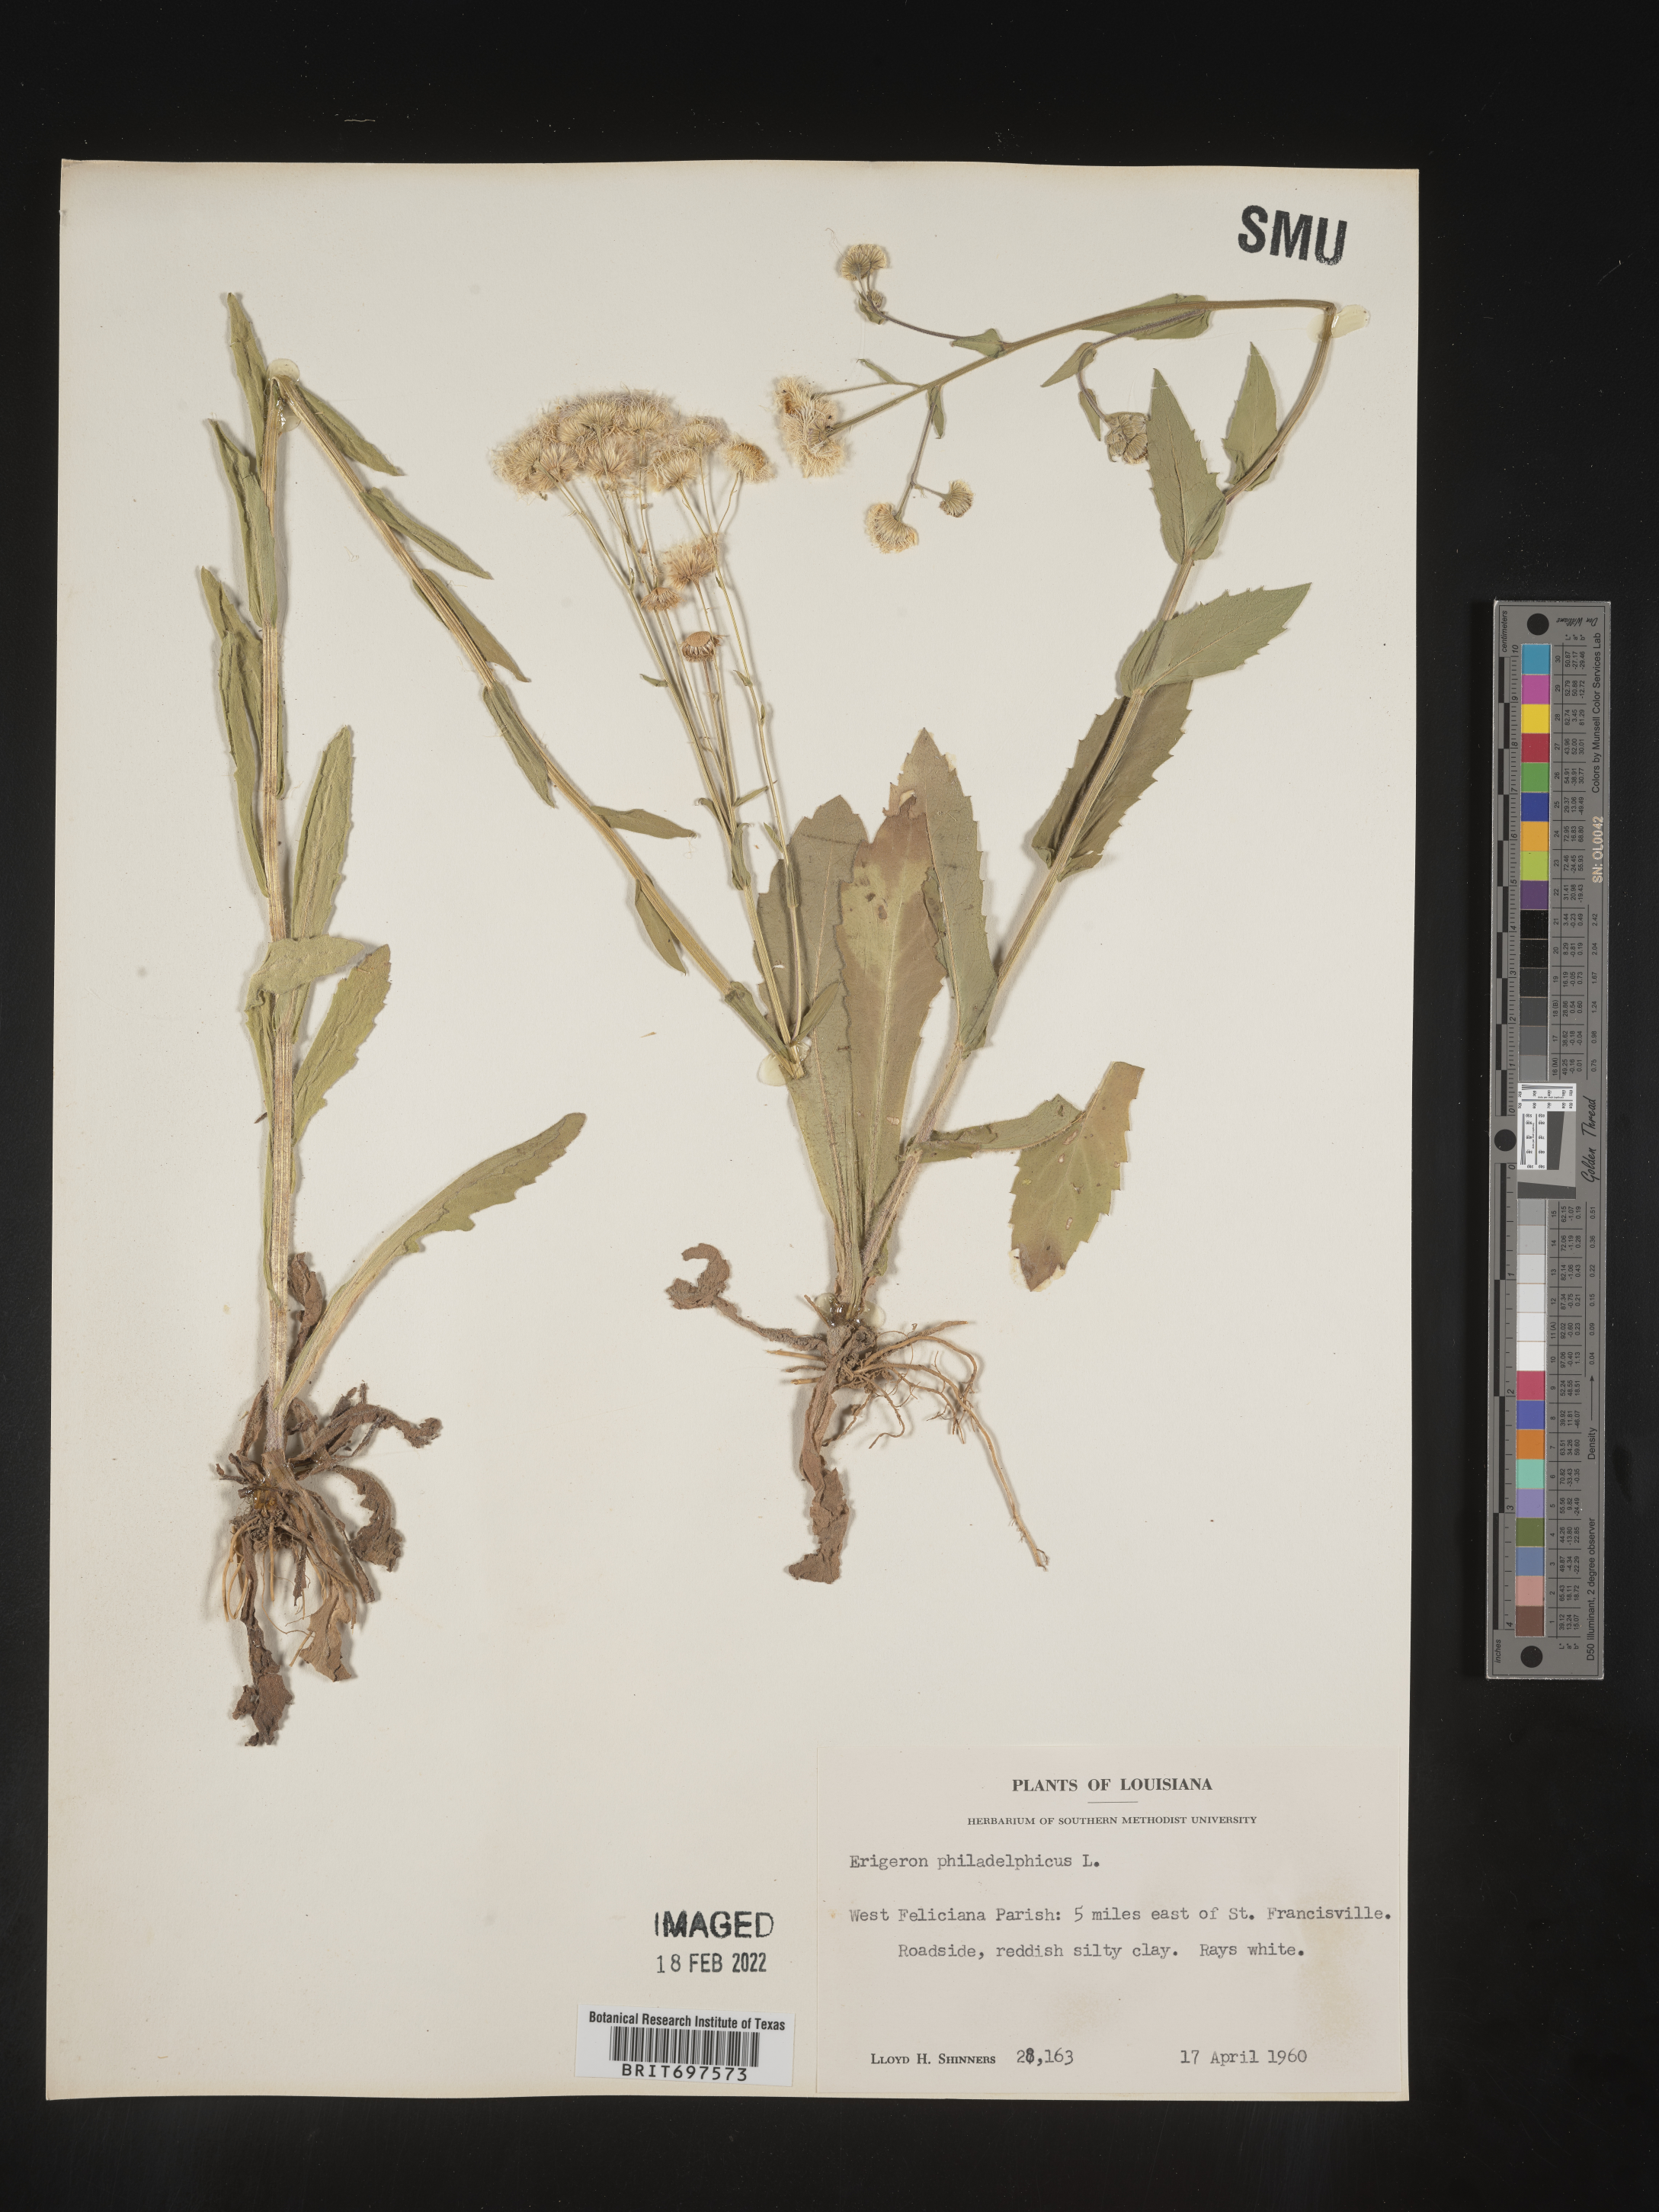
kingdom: Plantae
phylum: Tracheophyta
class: Magnoliopsida
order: Asterales
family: Asteraceae
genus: Erigeron
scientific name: Erigeron philadelphicus
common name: Robin's-plantain
